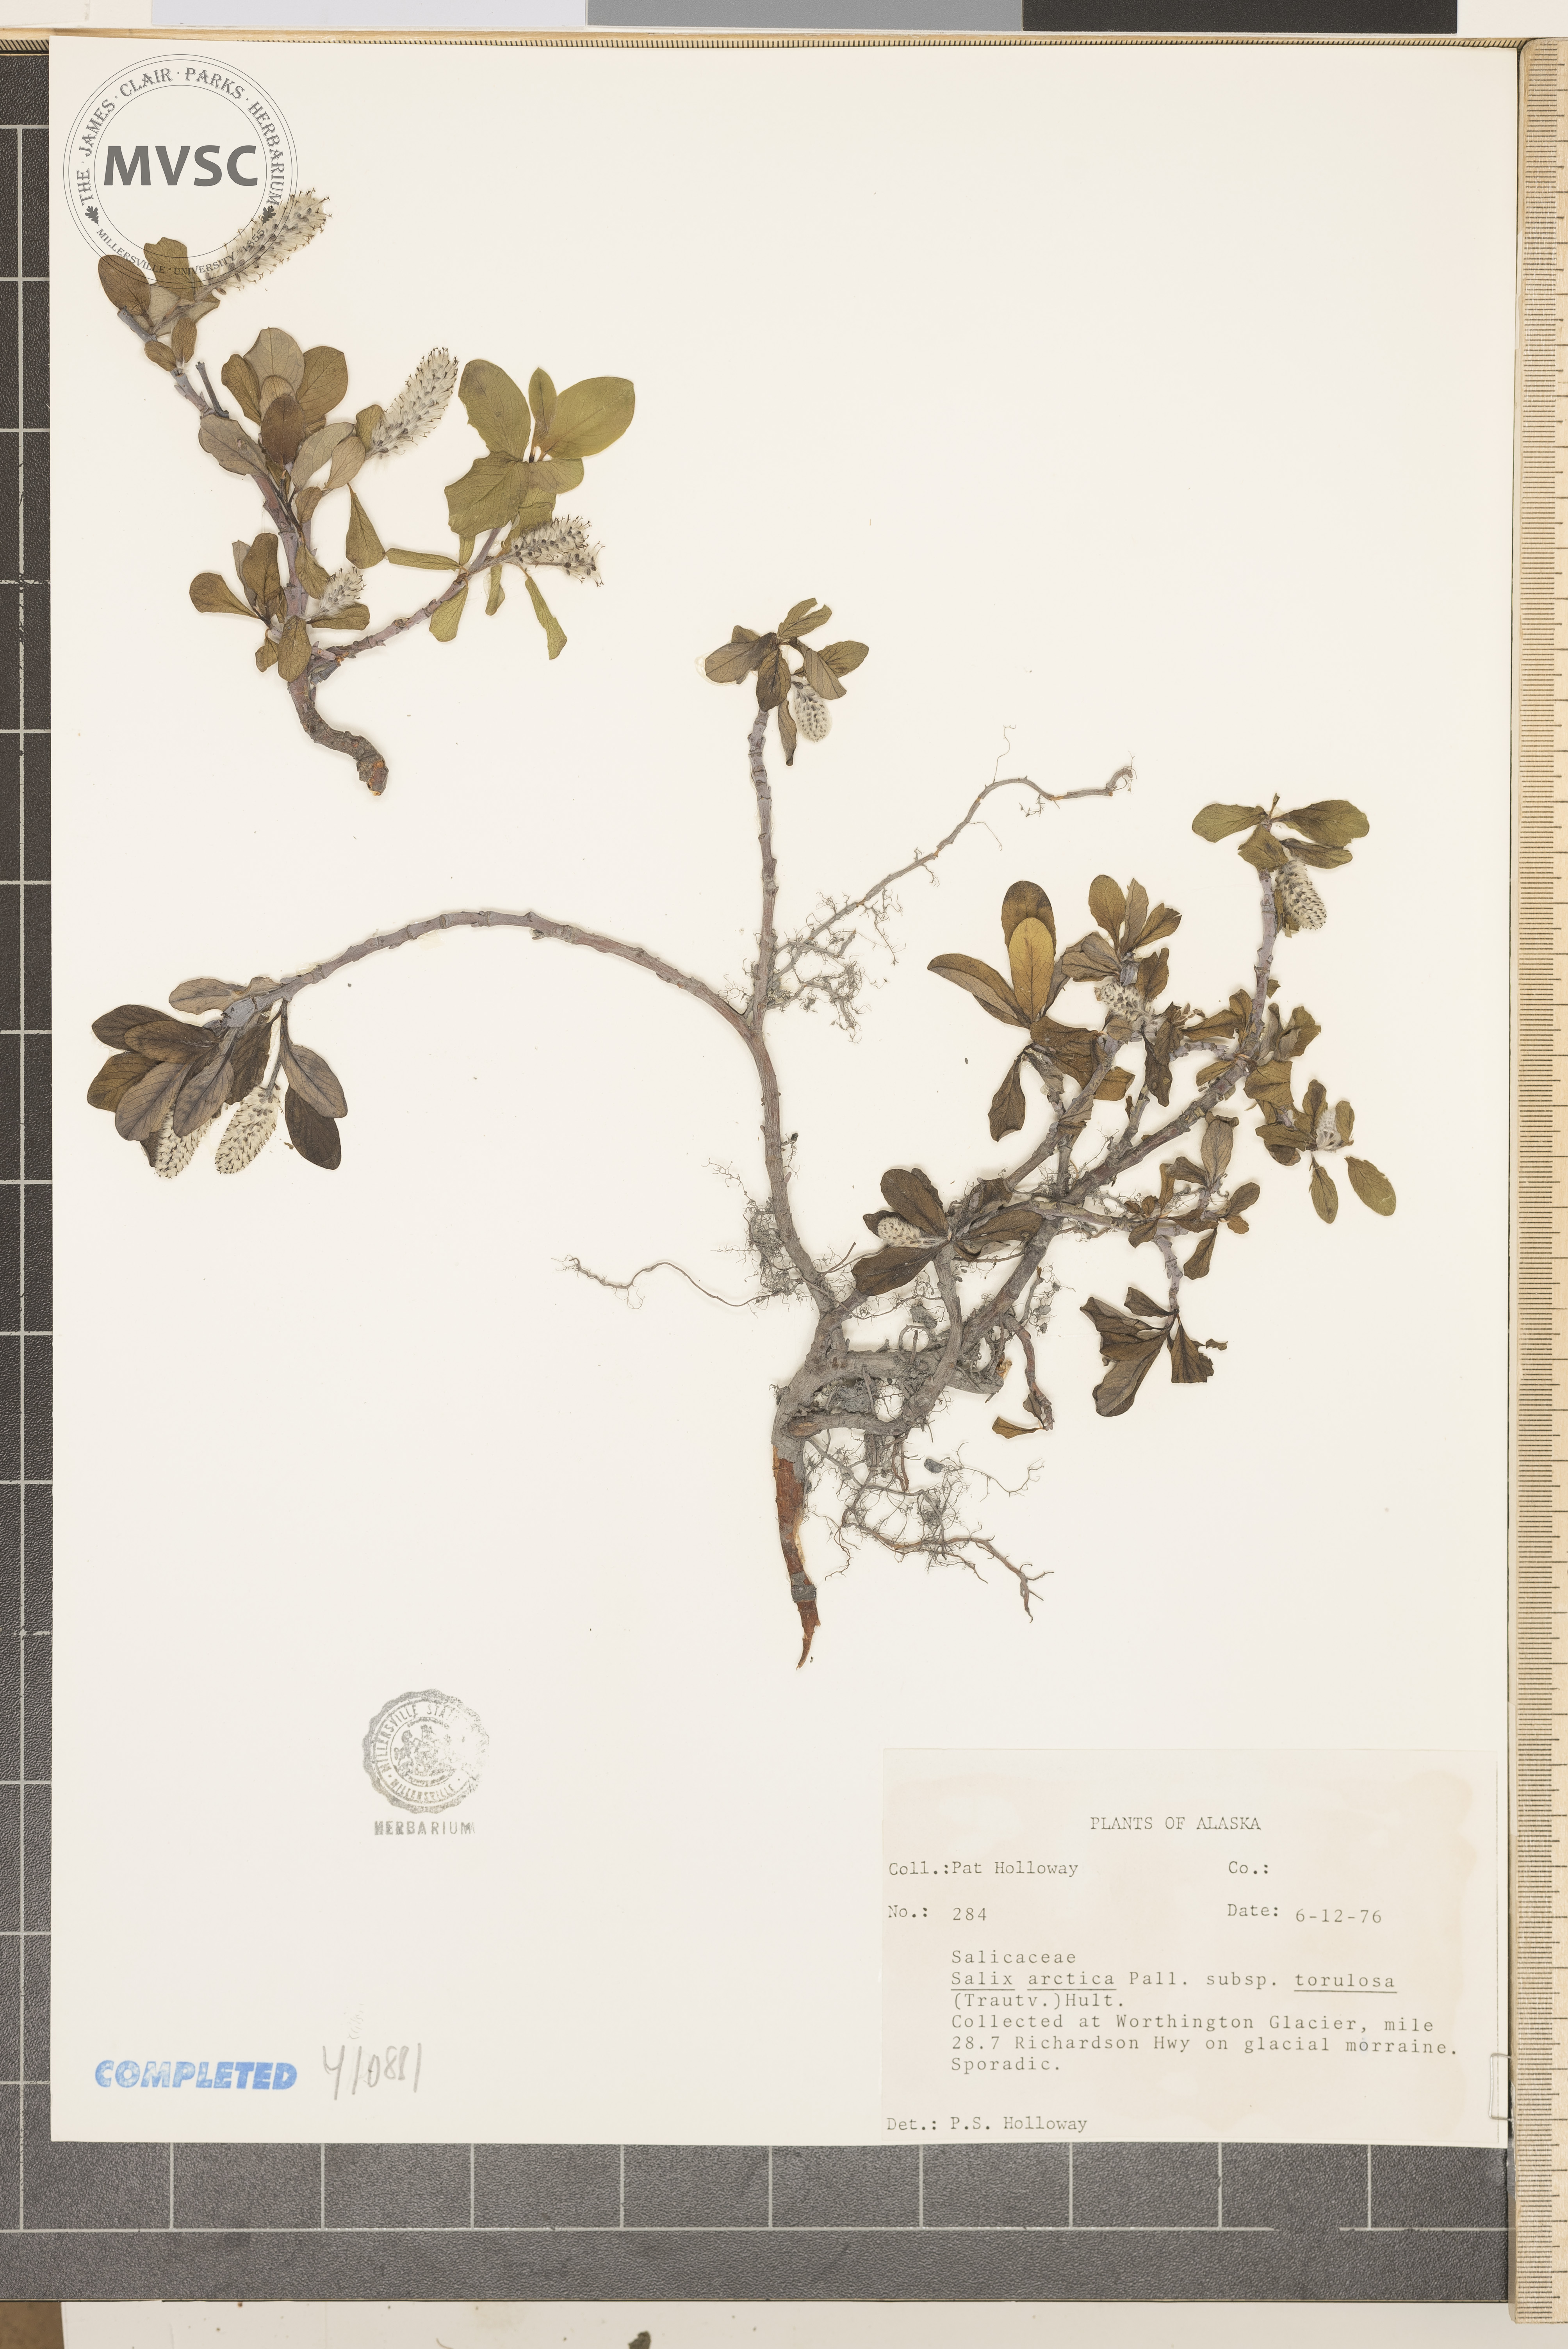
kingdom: Plantae
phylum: Tracheophyta
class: Magnoliopsida
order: Malpighiales
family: Salicaceae
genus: Salix
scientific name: Salix arctica
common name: Arctic willow
